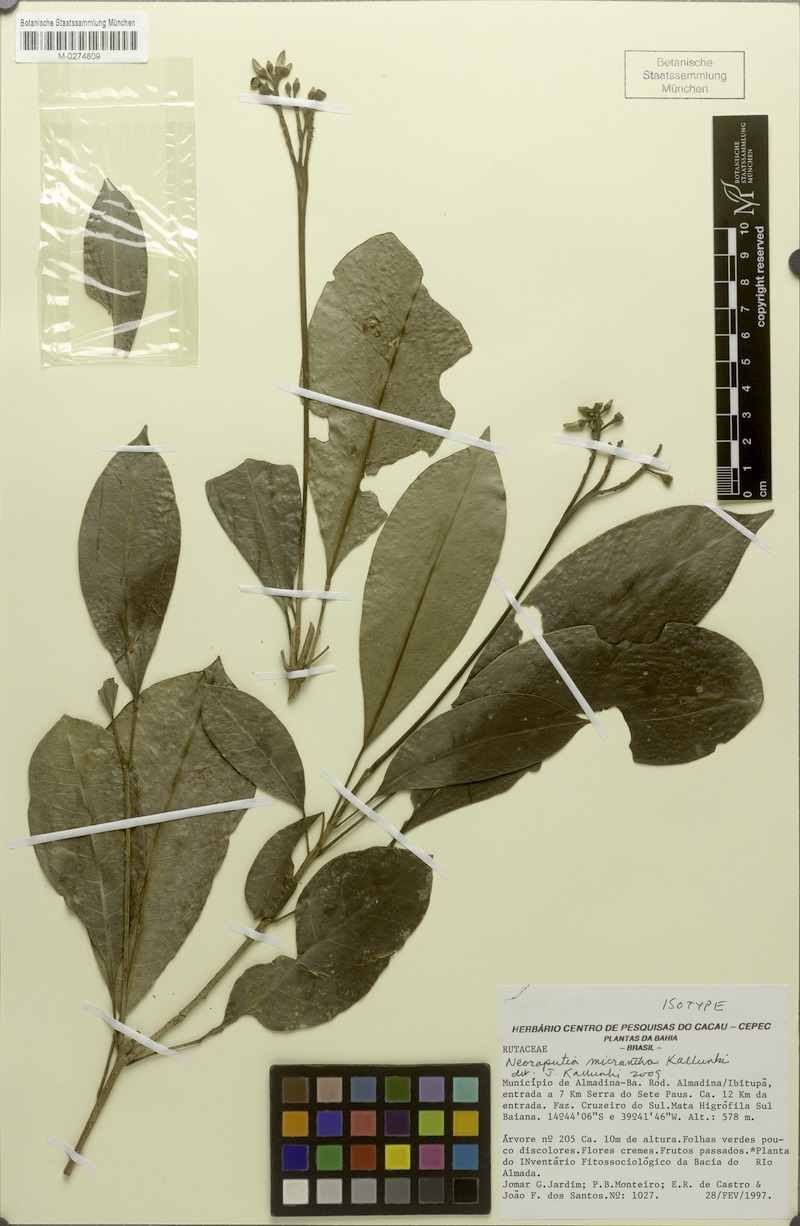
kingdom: Plantae
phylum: Tracheophyta
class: Magnoliopsida
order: Sapindales
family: Rutaceae
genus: Neoraputia
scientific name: Neoraputia micrantha
